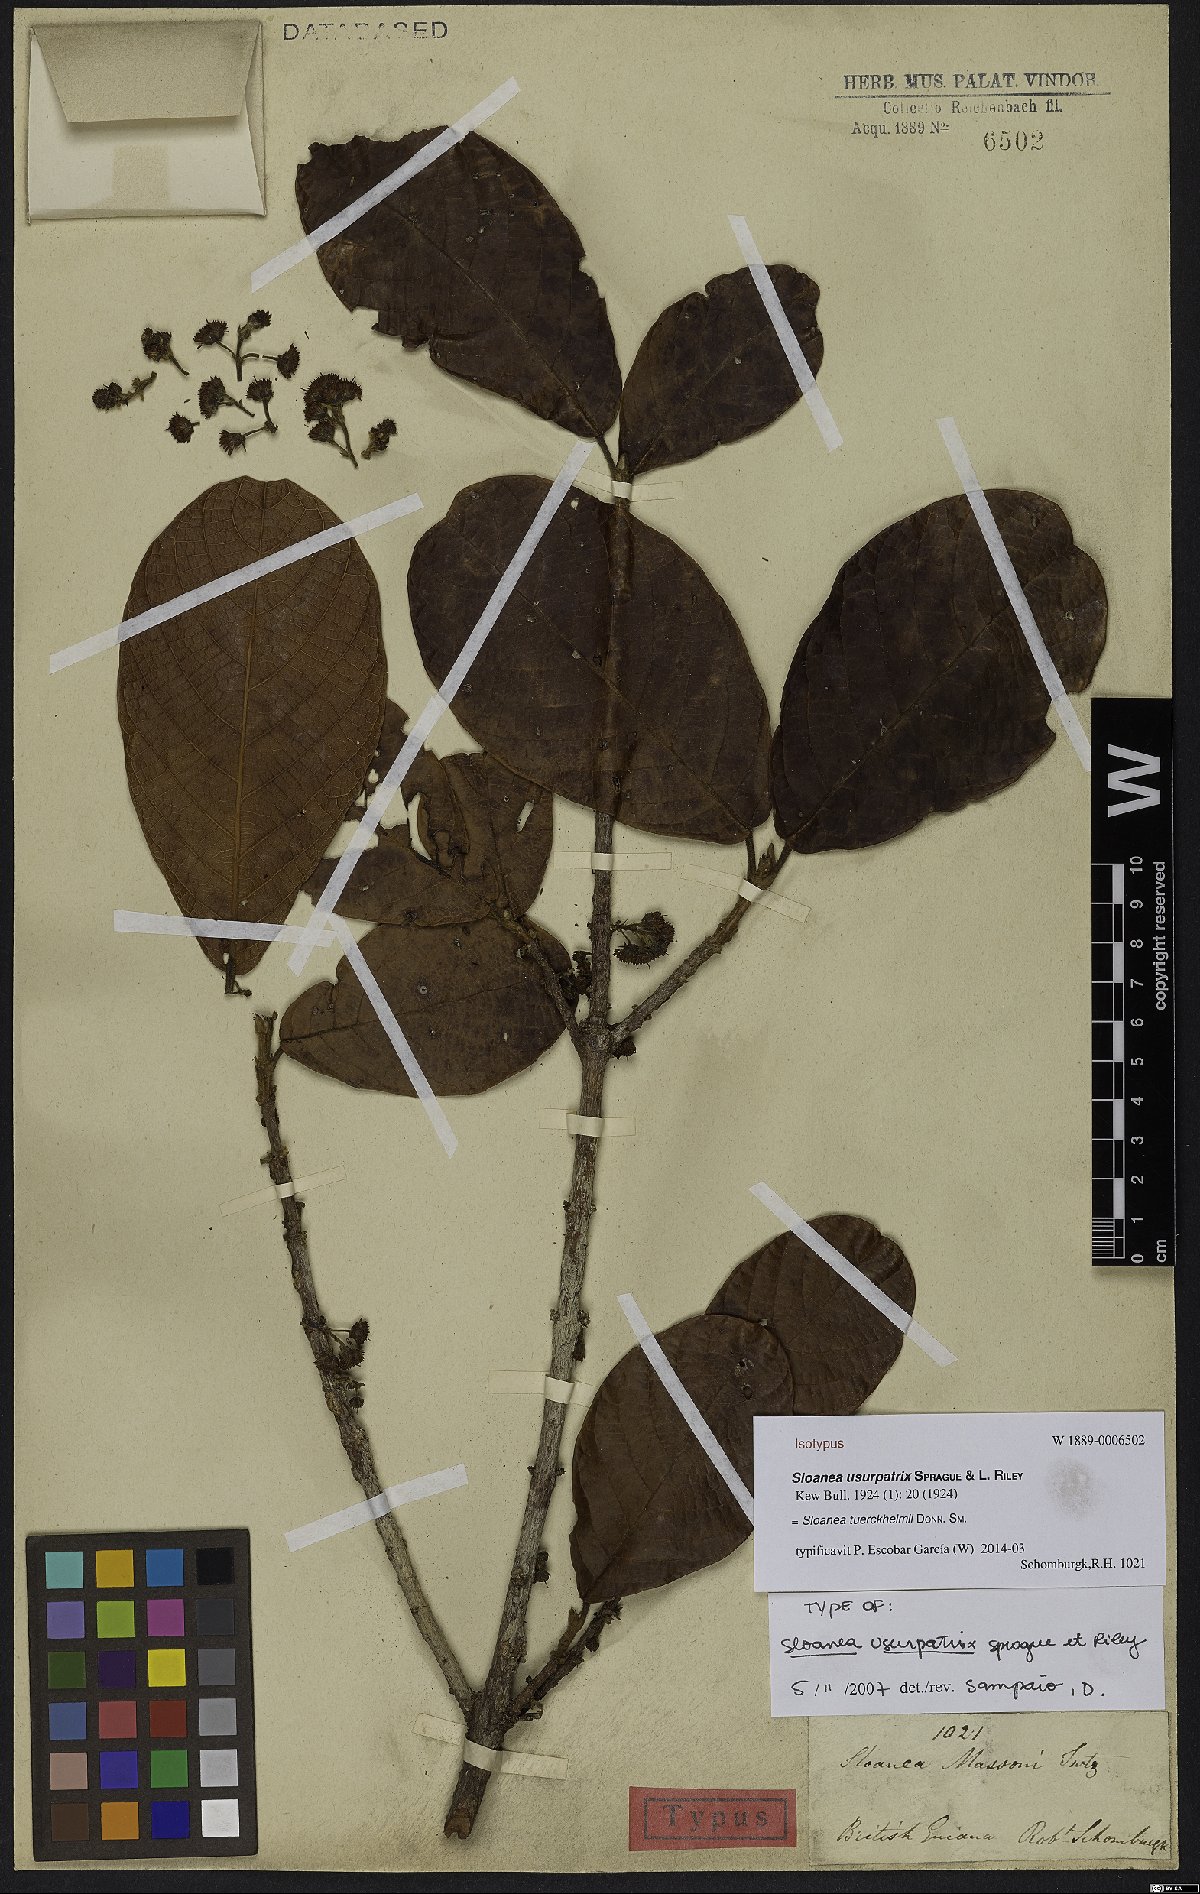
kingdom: Plantae
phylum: Tracheophyta
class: Magnoliopsida
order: Oxalidales
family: Elaeocarpaceae
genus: Sloanea
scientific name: Sloanea tuerckheimii
